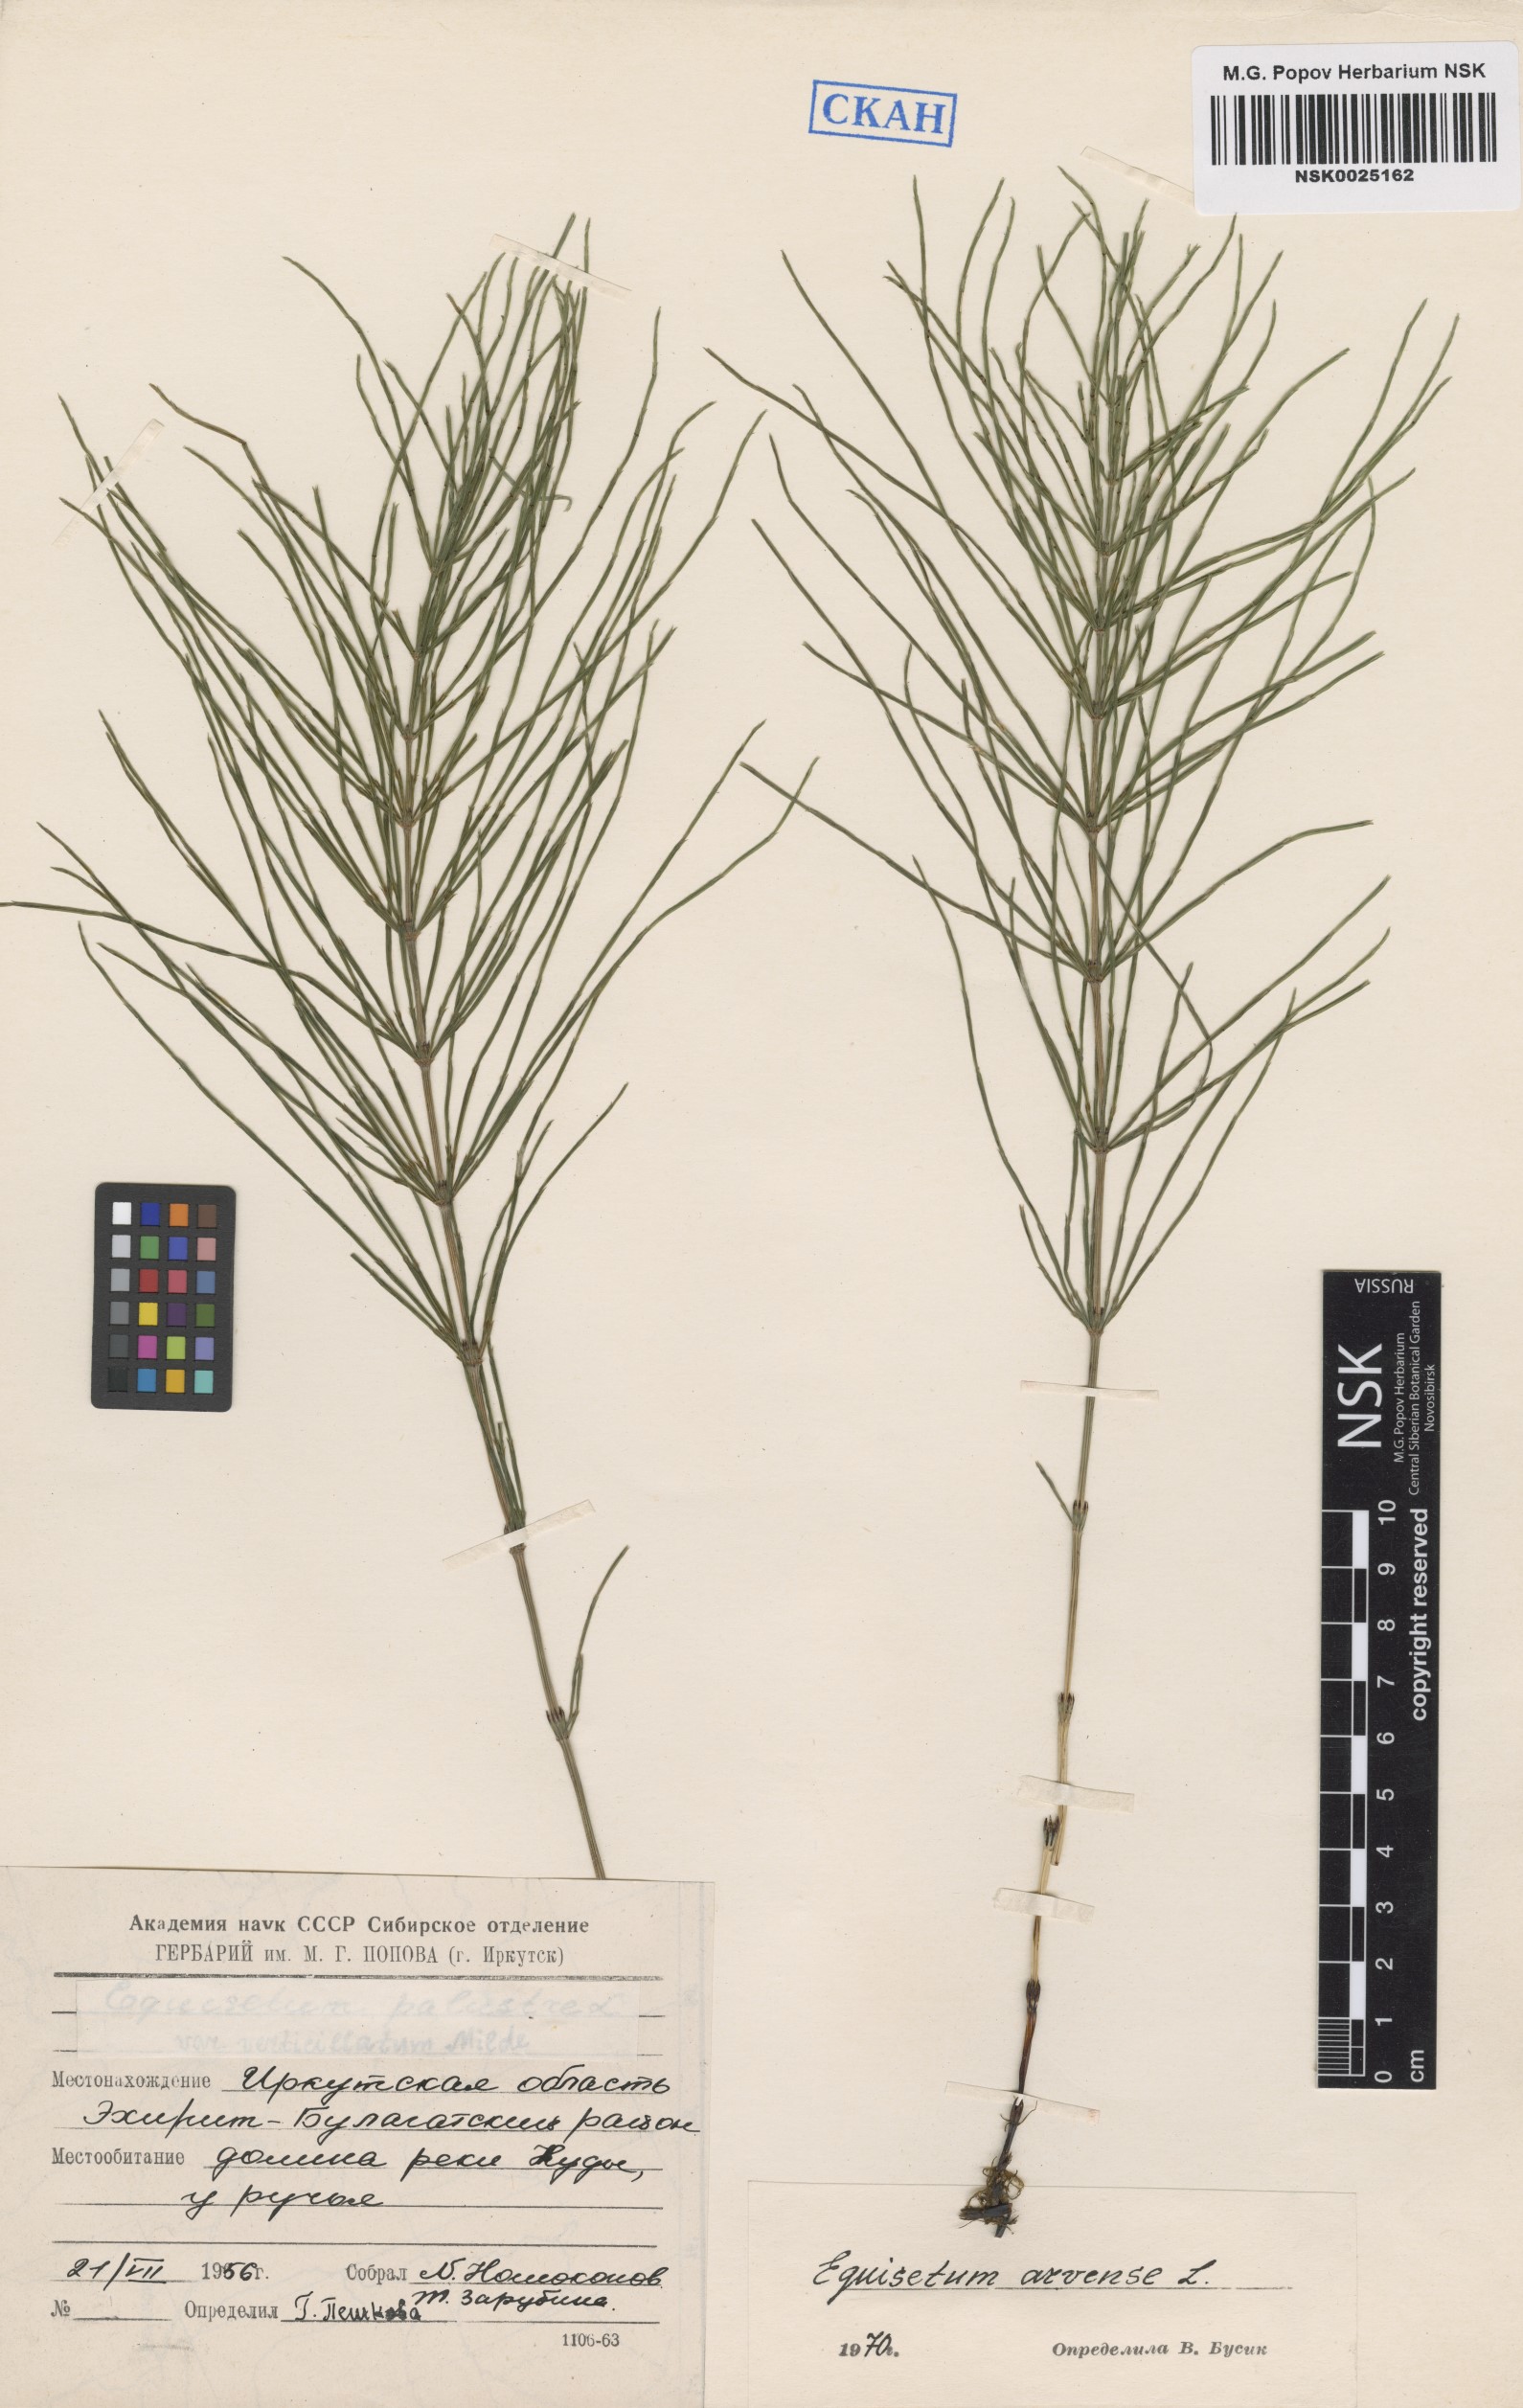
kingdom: Plantae
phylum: Tracheophyta
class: Polypodiopsida
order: Equisetales
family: Equisetaceae
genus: Equisetum
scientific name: Equisetum arvense
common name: Field horsetail
